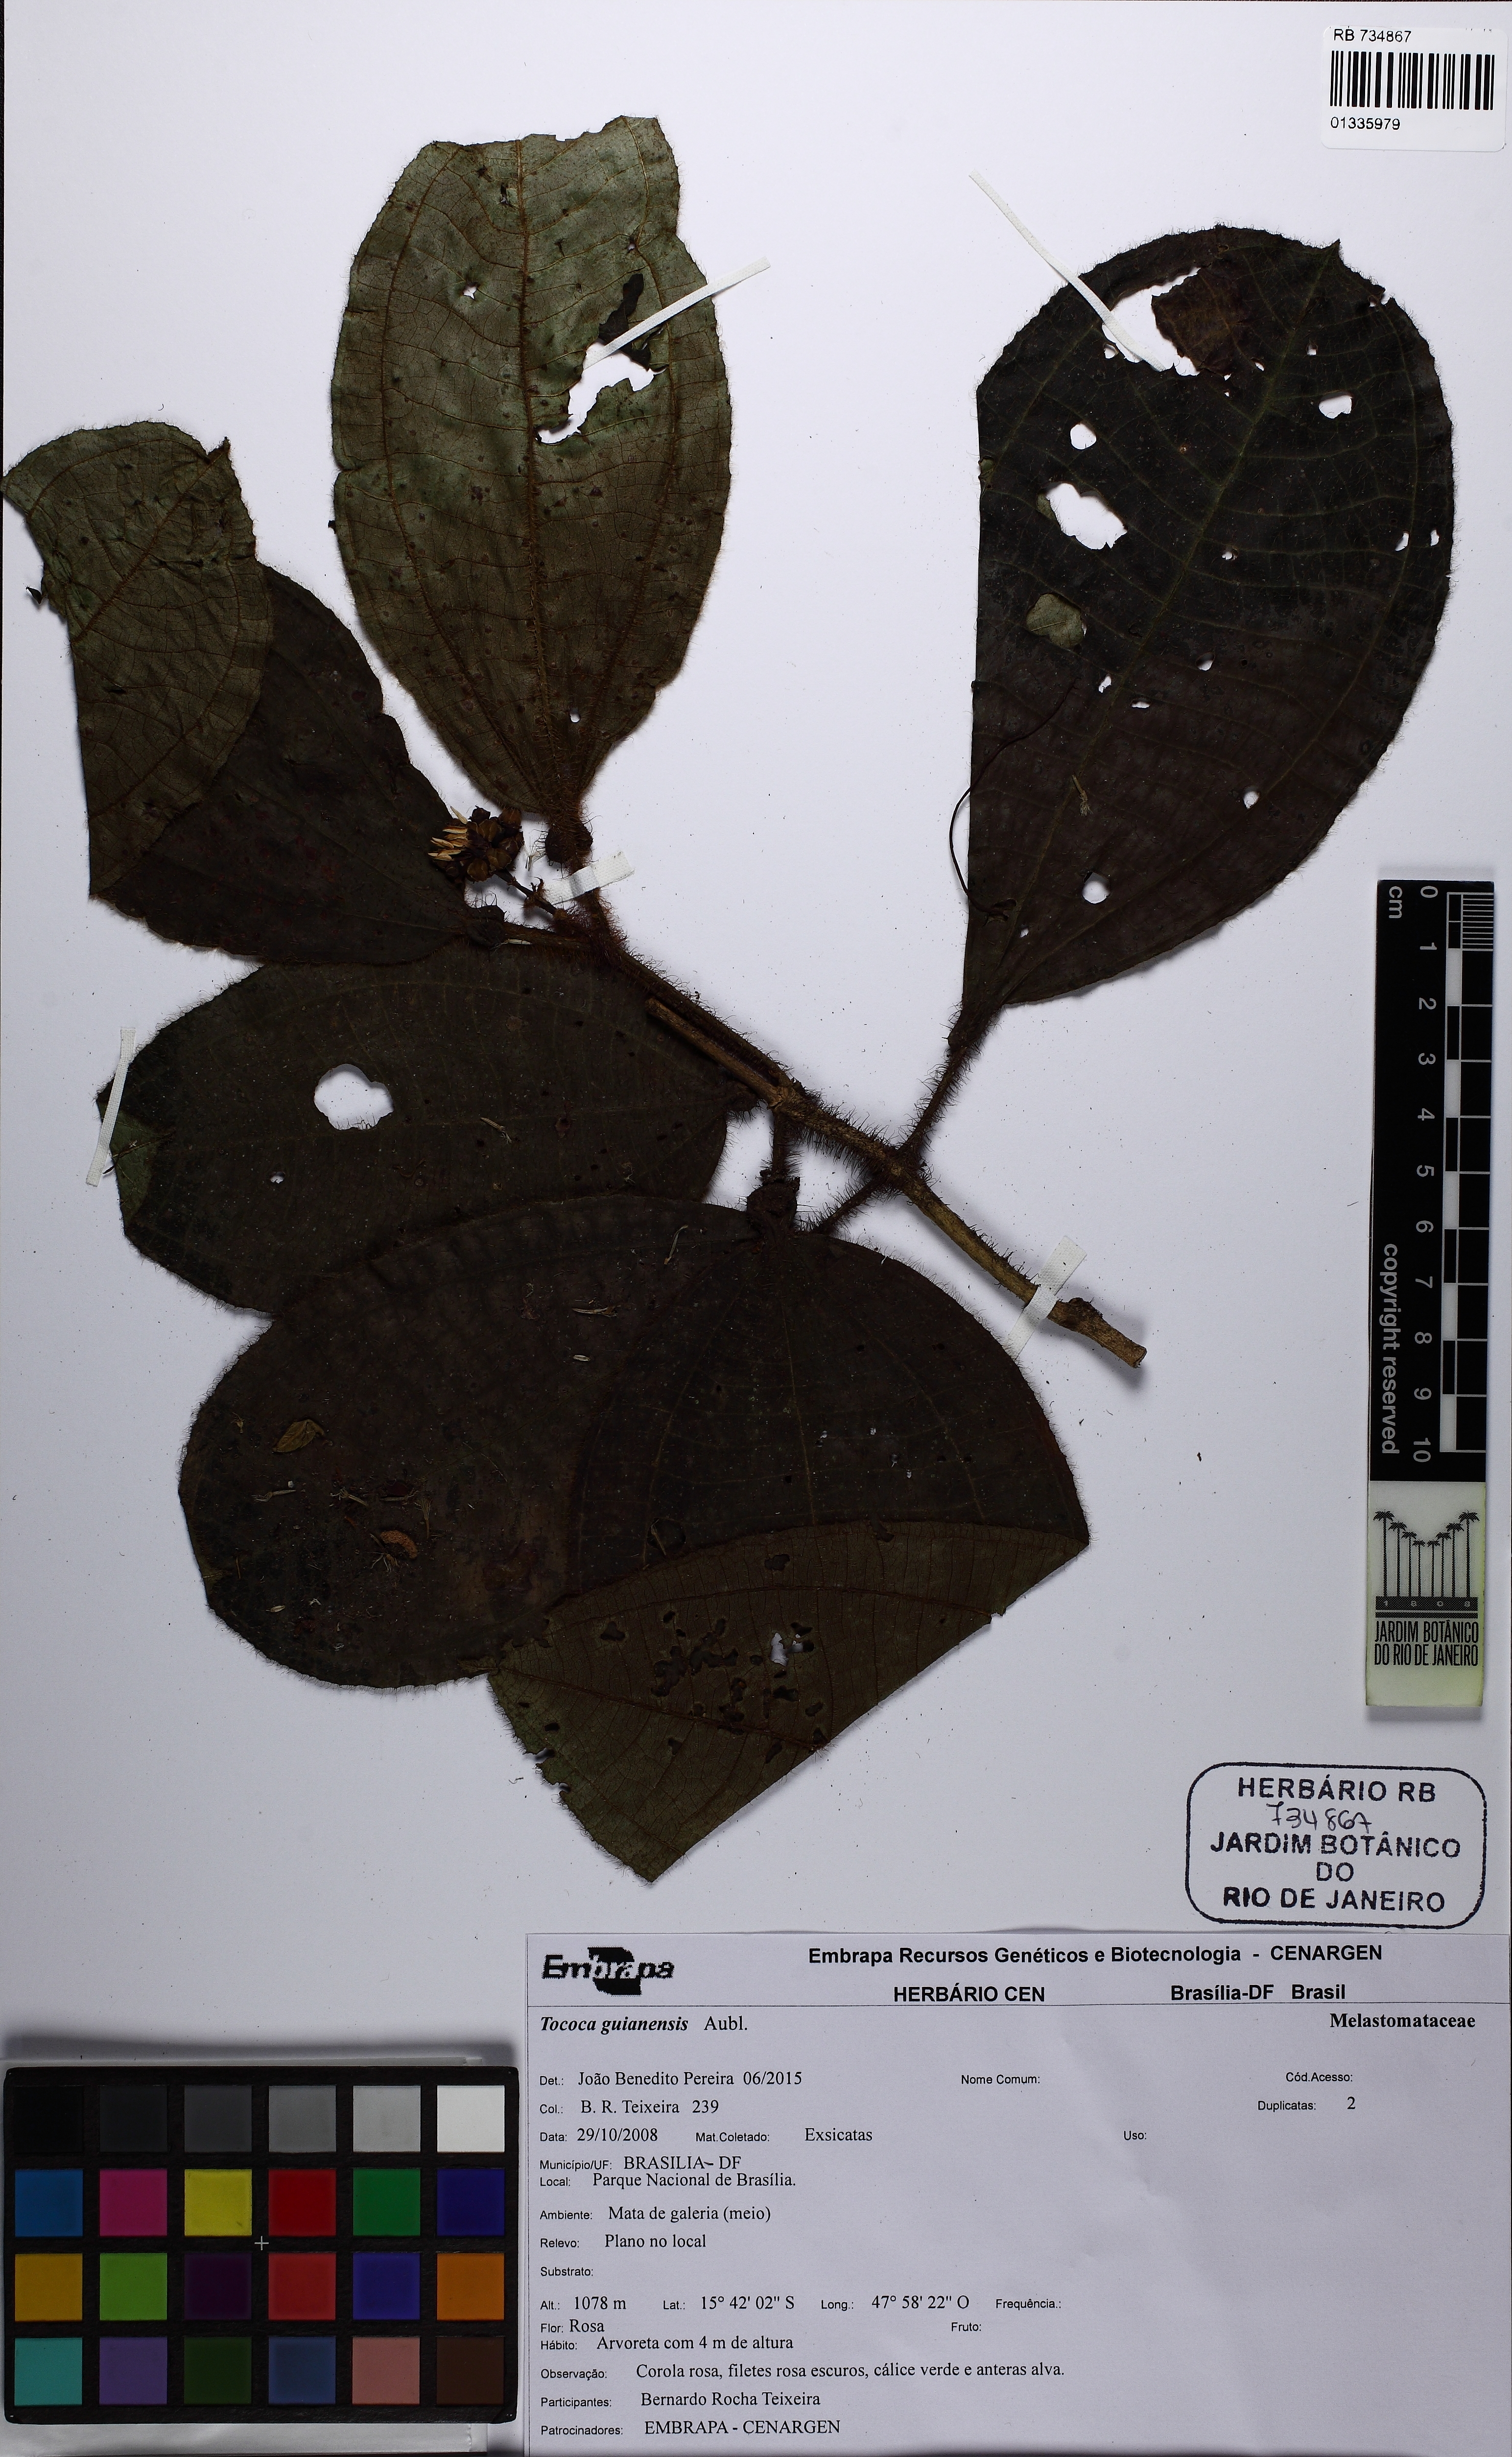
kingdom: Plantae
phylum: Tracheophyta
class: Magnoliopsida
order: Myrtales
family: Melastomataceae
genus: Miconia
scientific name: Miconia tococa
